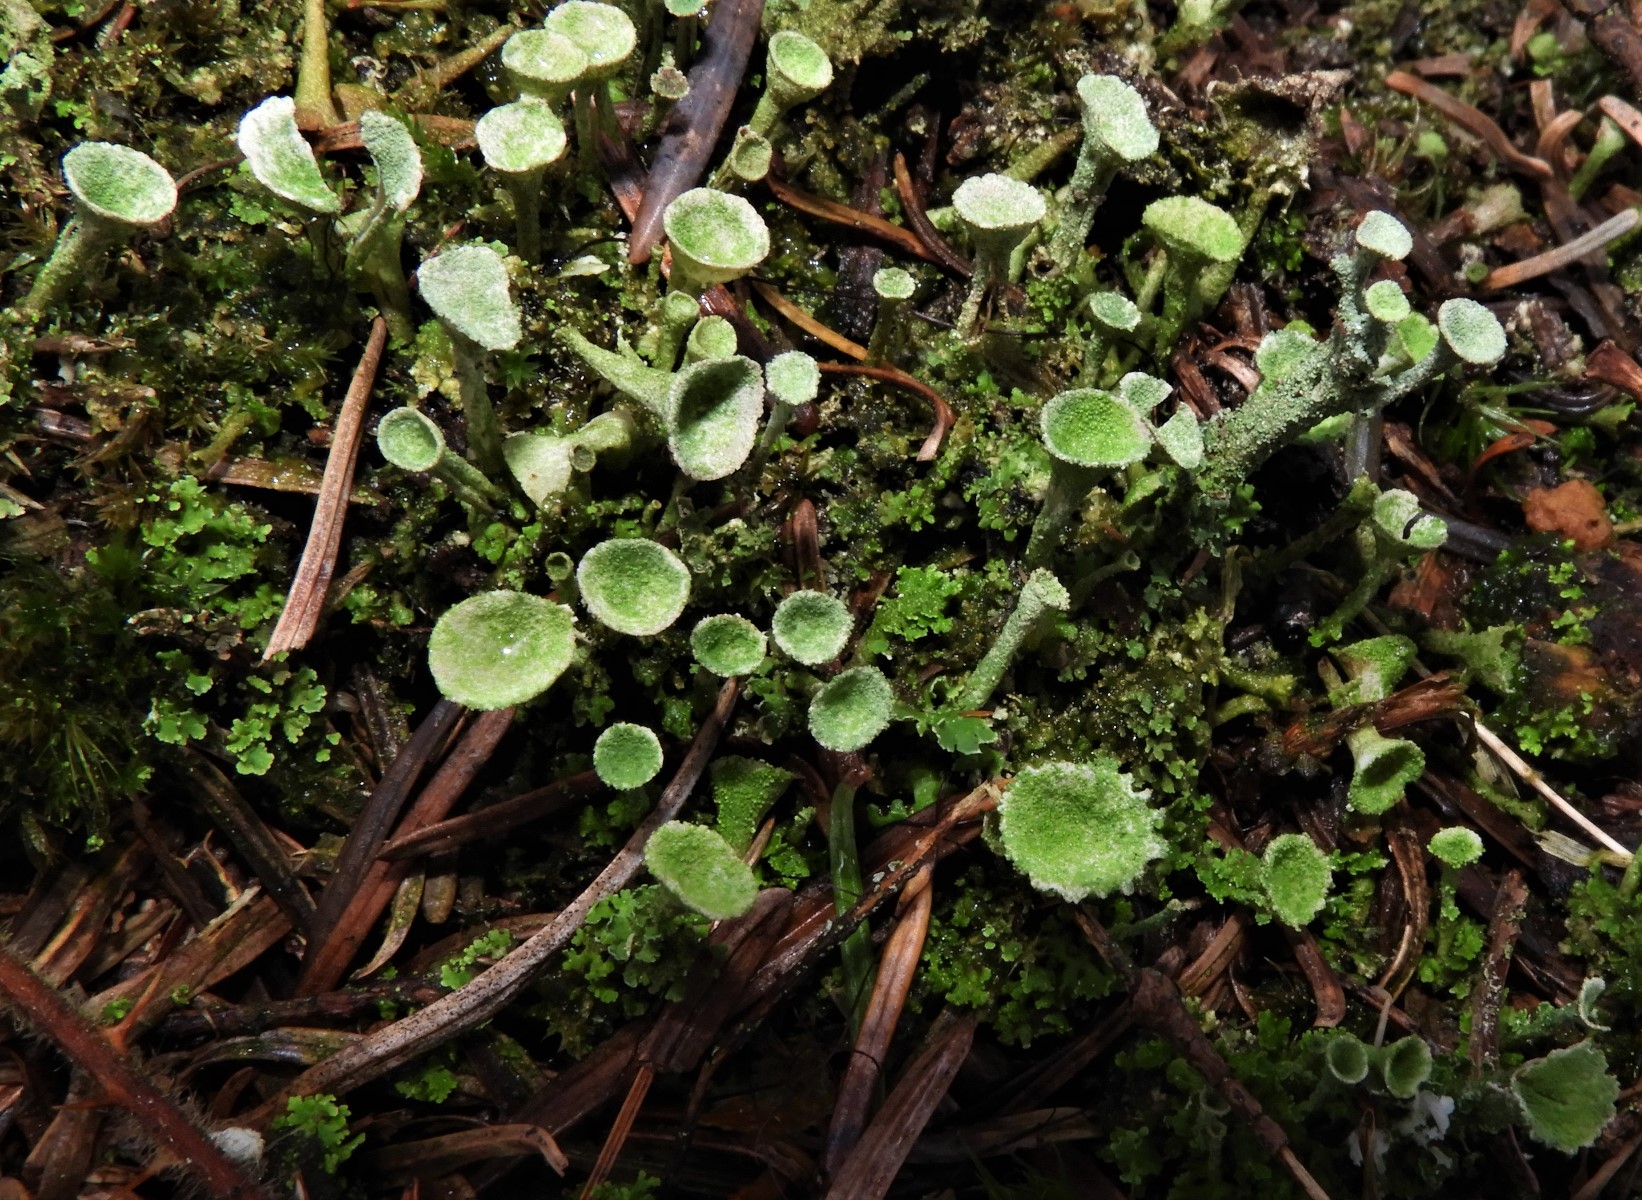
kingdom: Fungi
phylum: Ascomycota
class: Lecanoromycetes
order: Lecanorales
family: Cladoniaceae
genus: Cladonia
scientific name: Cladonia
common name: brungrøn bægerlav
